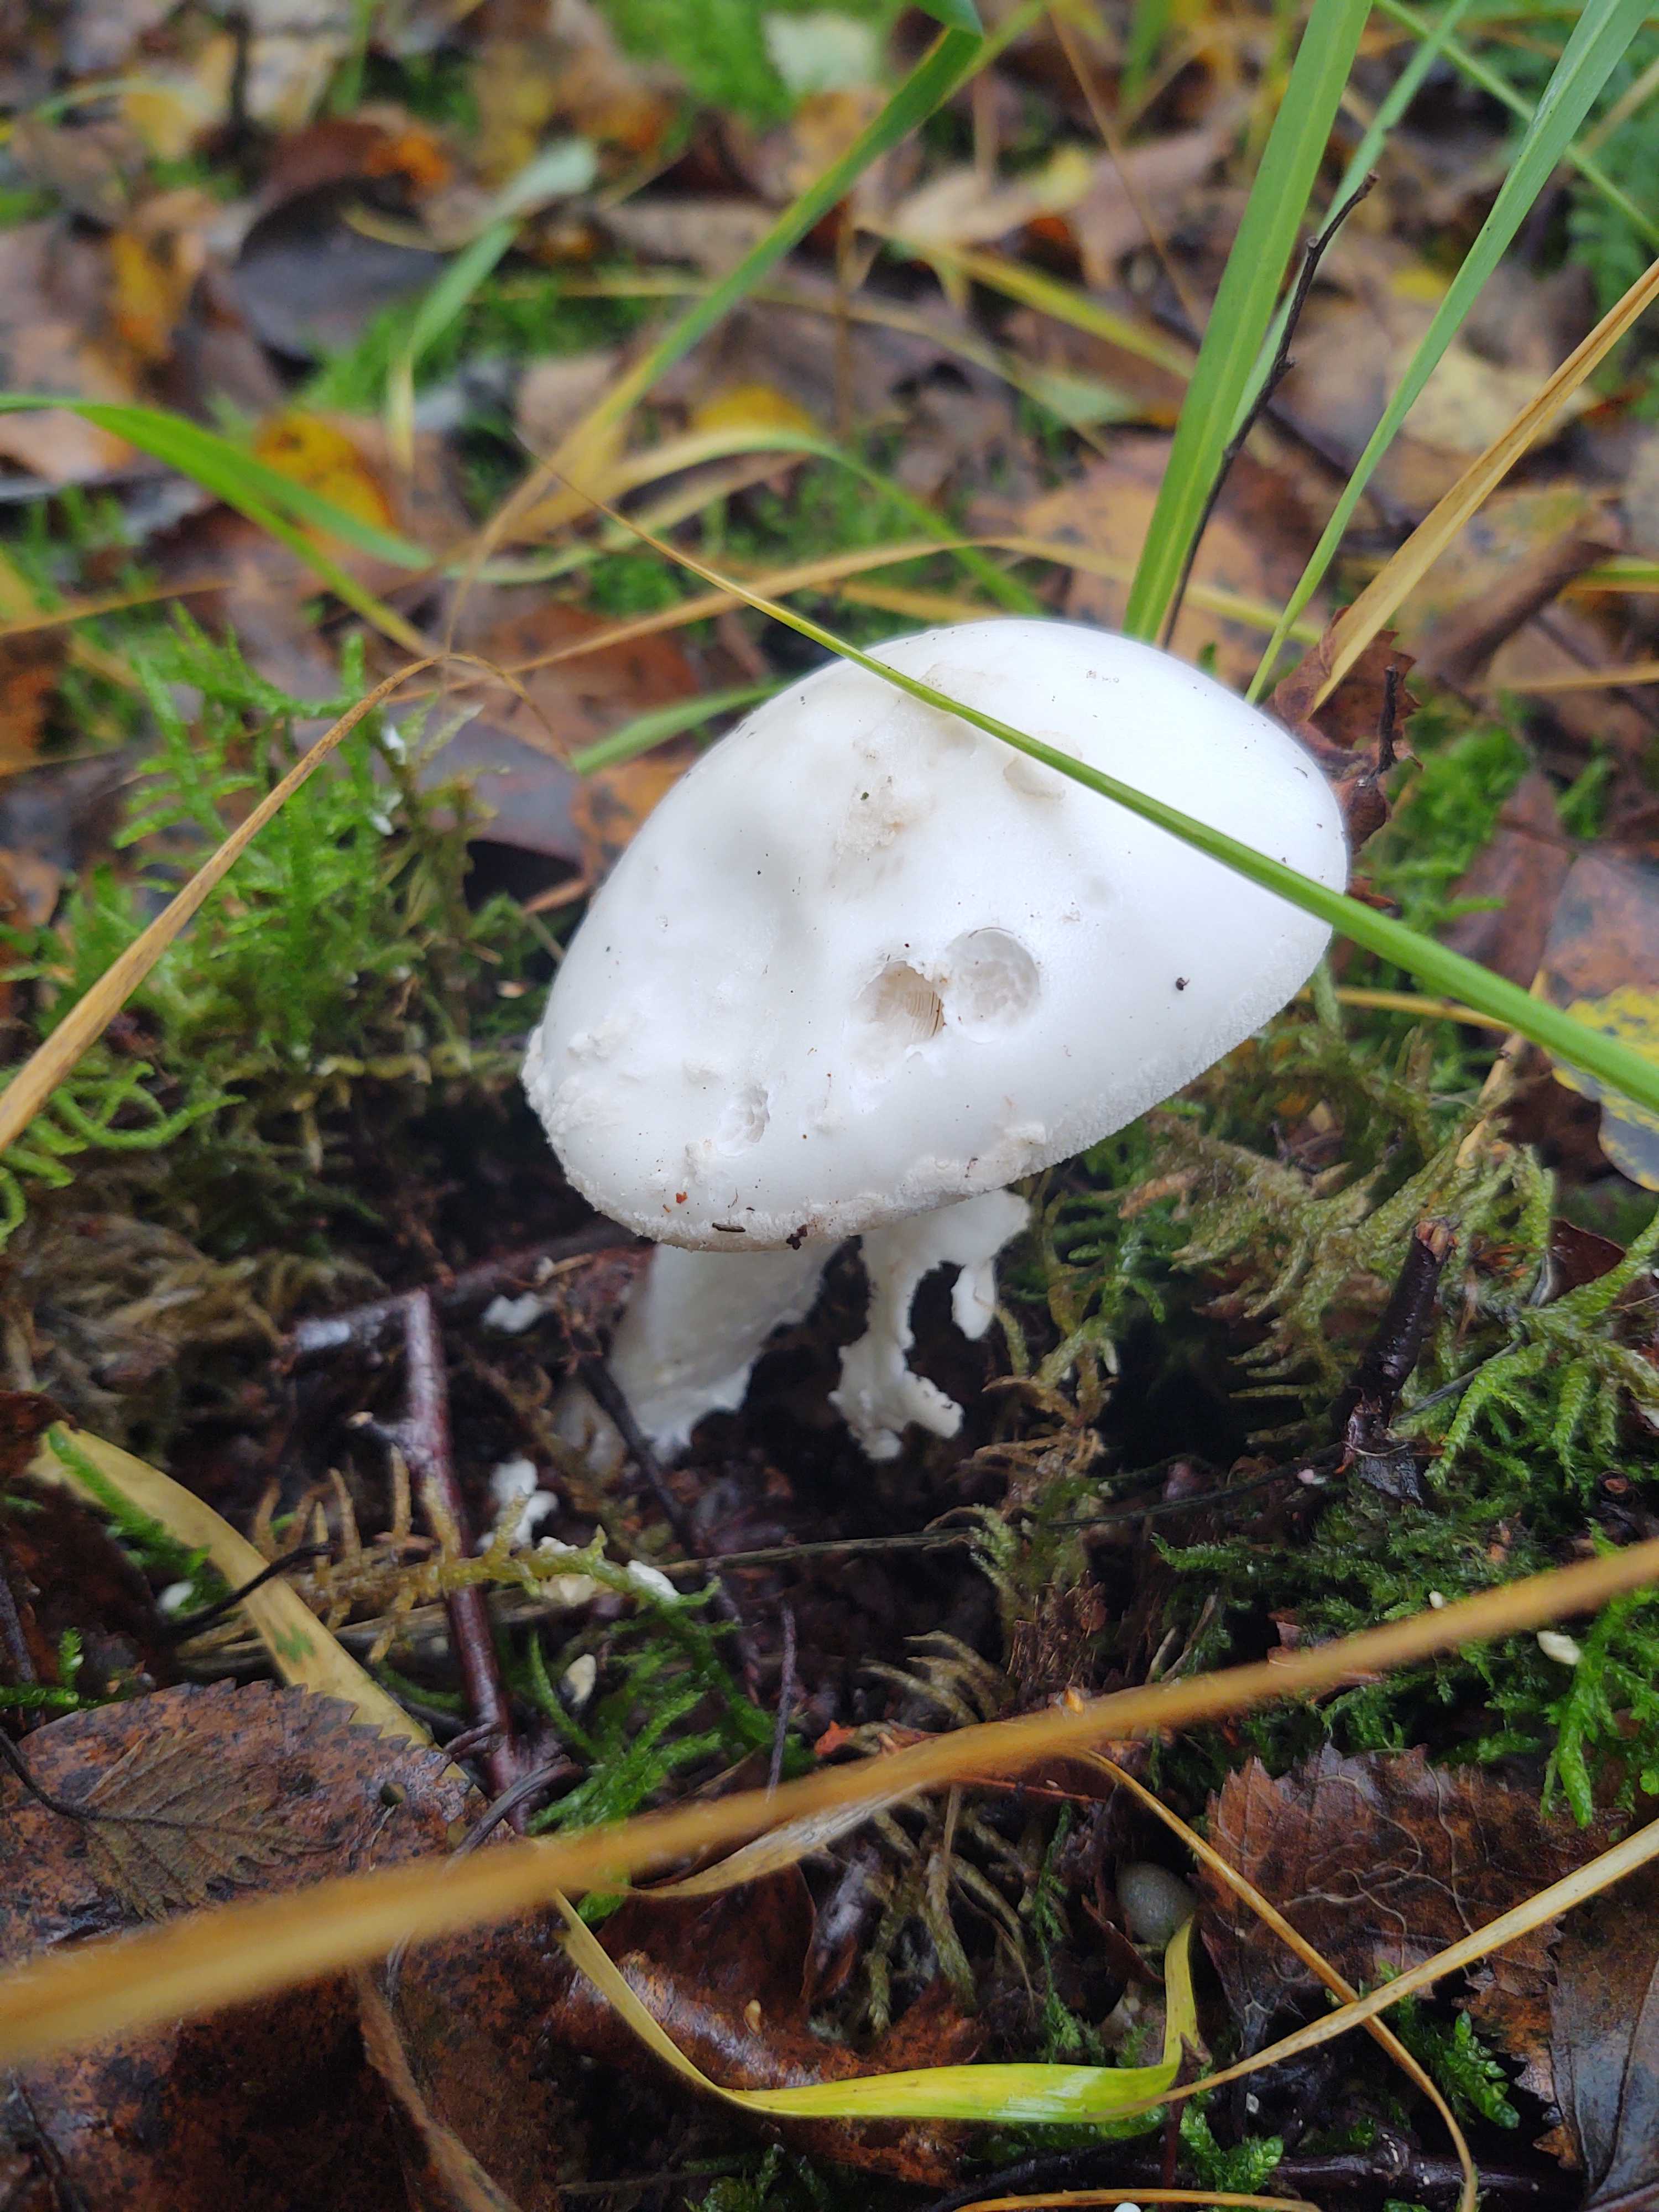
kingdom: Fungi
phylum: Basidiomycota
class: Agaricomycetes
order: Agaricales
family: Amanitaceae
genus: Amanita
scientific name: Amanita
